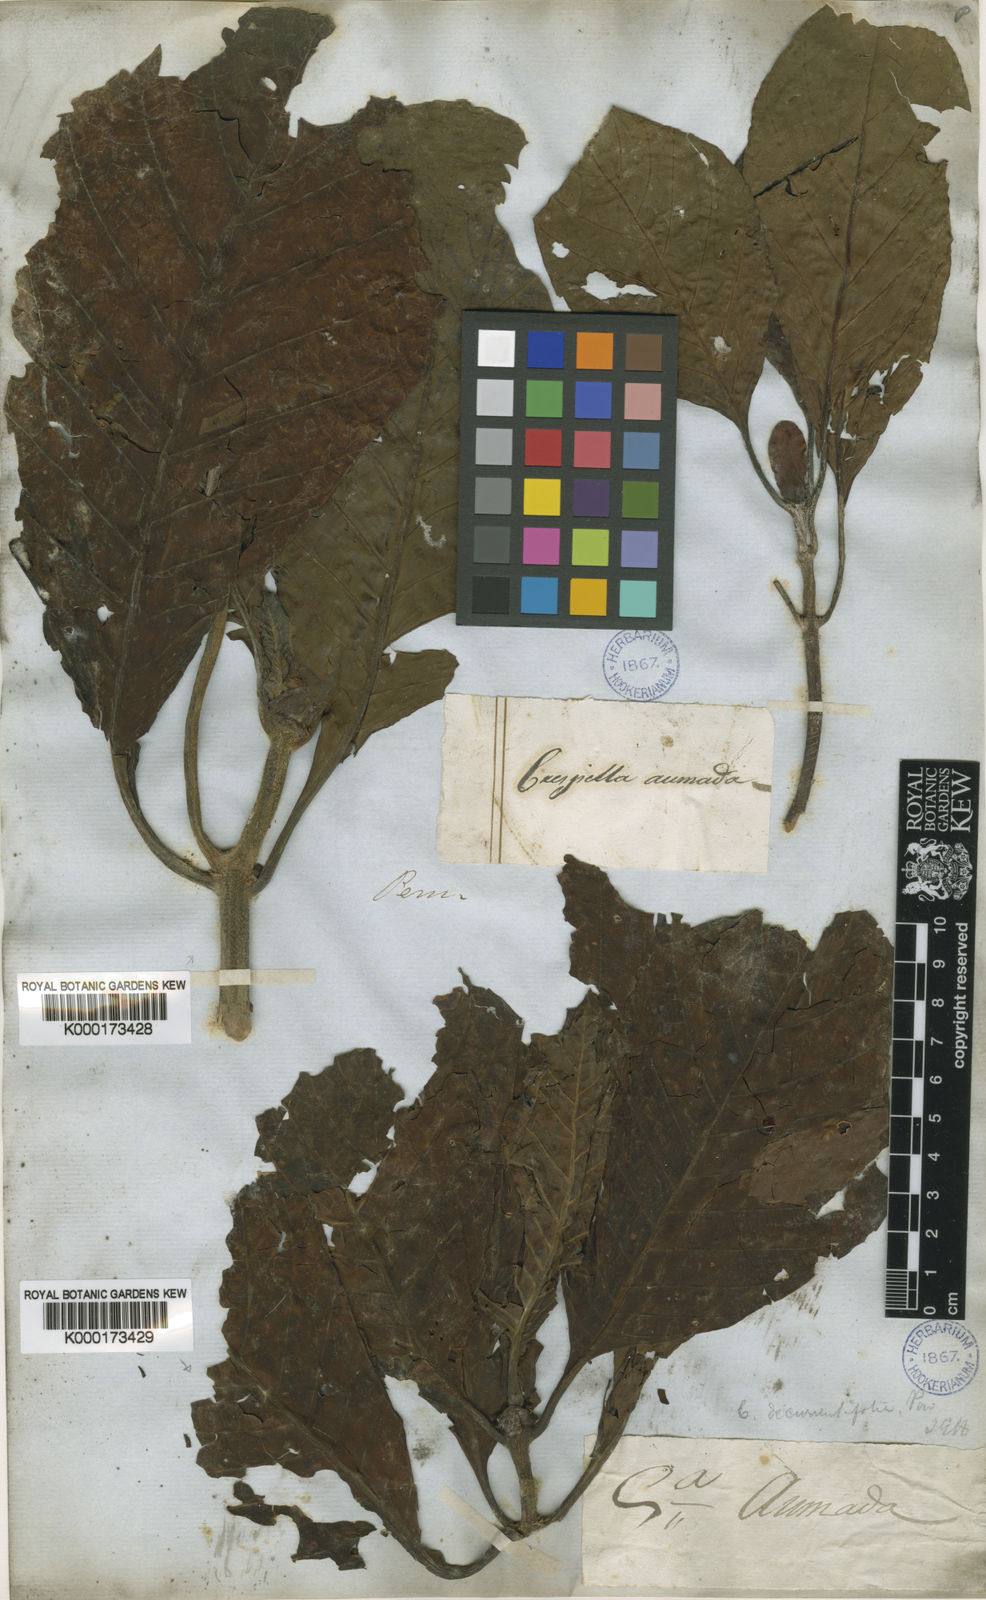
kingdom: Plantae
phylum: Tracheophyta
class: Magnoliopsida
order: Gentianales
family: Rubiaceae
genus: Cinchona
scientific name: Cinchona pubescens
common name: Quinine
